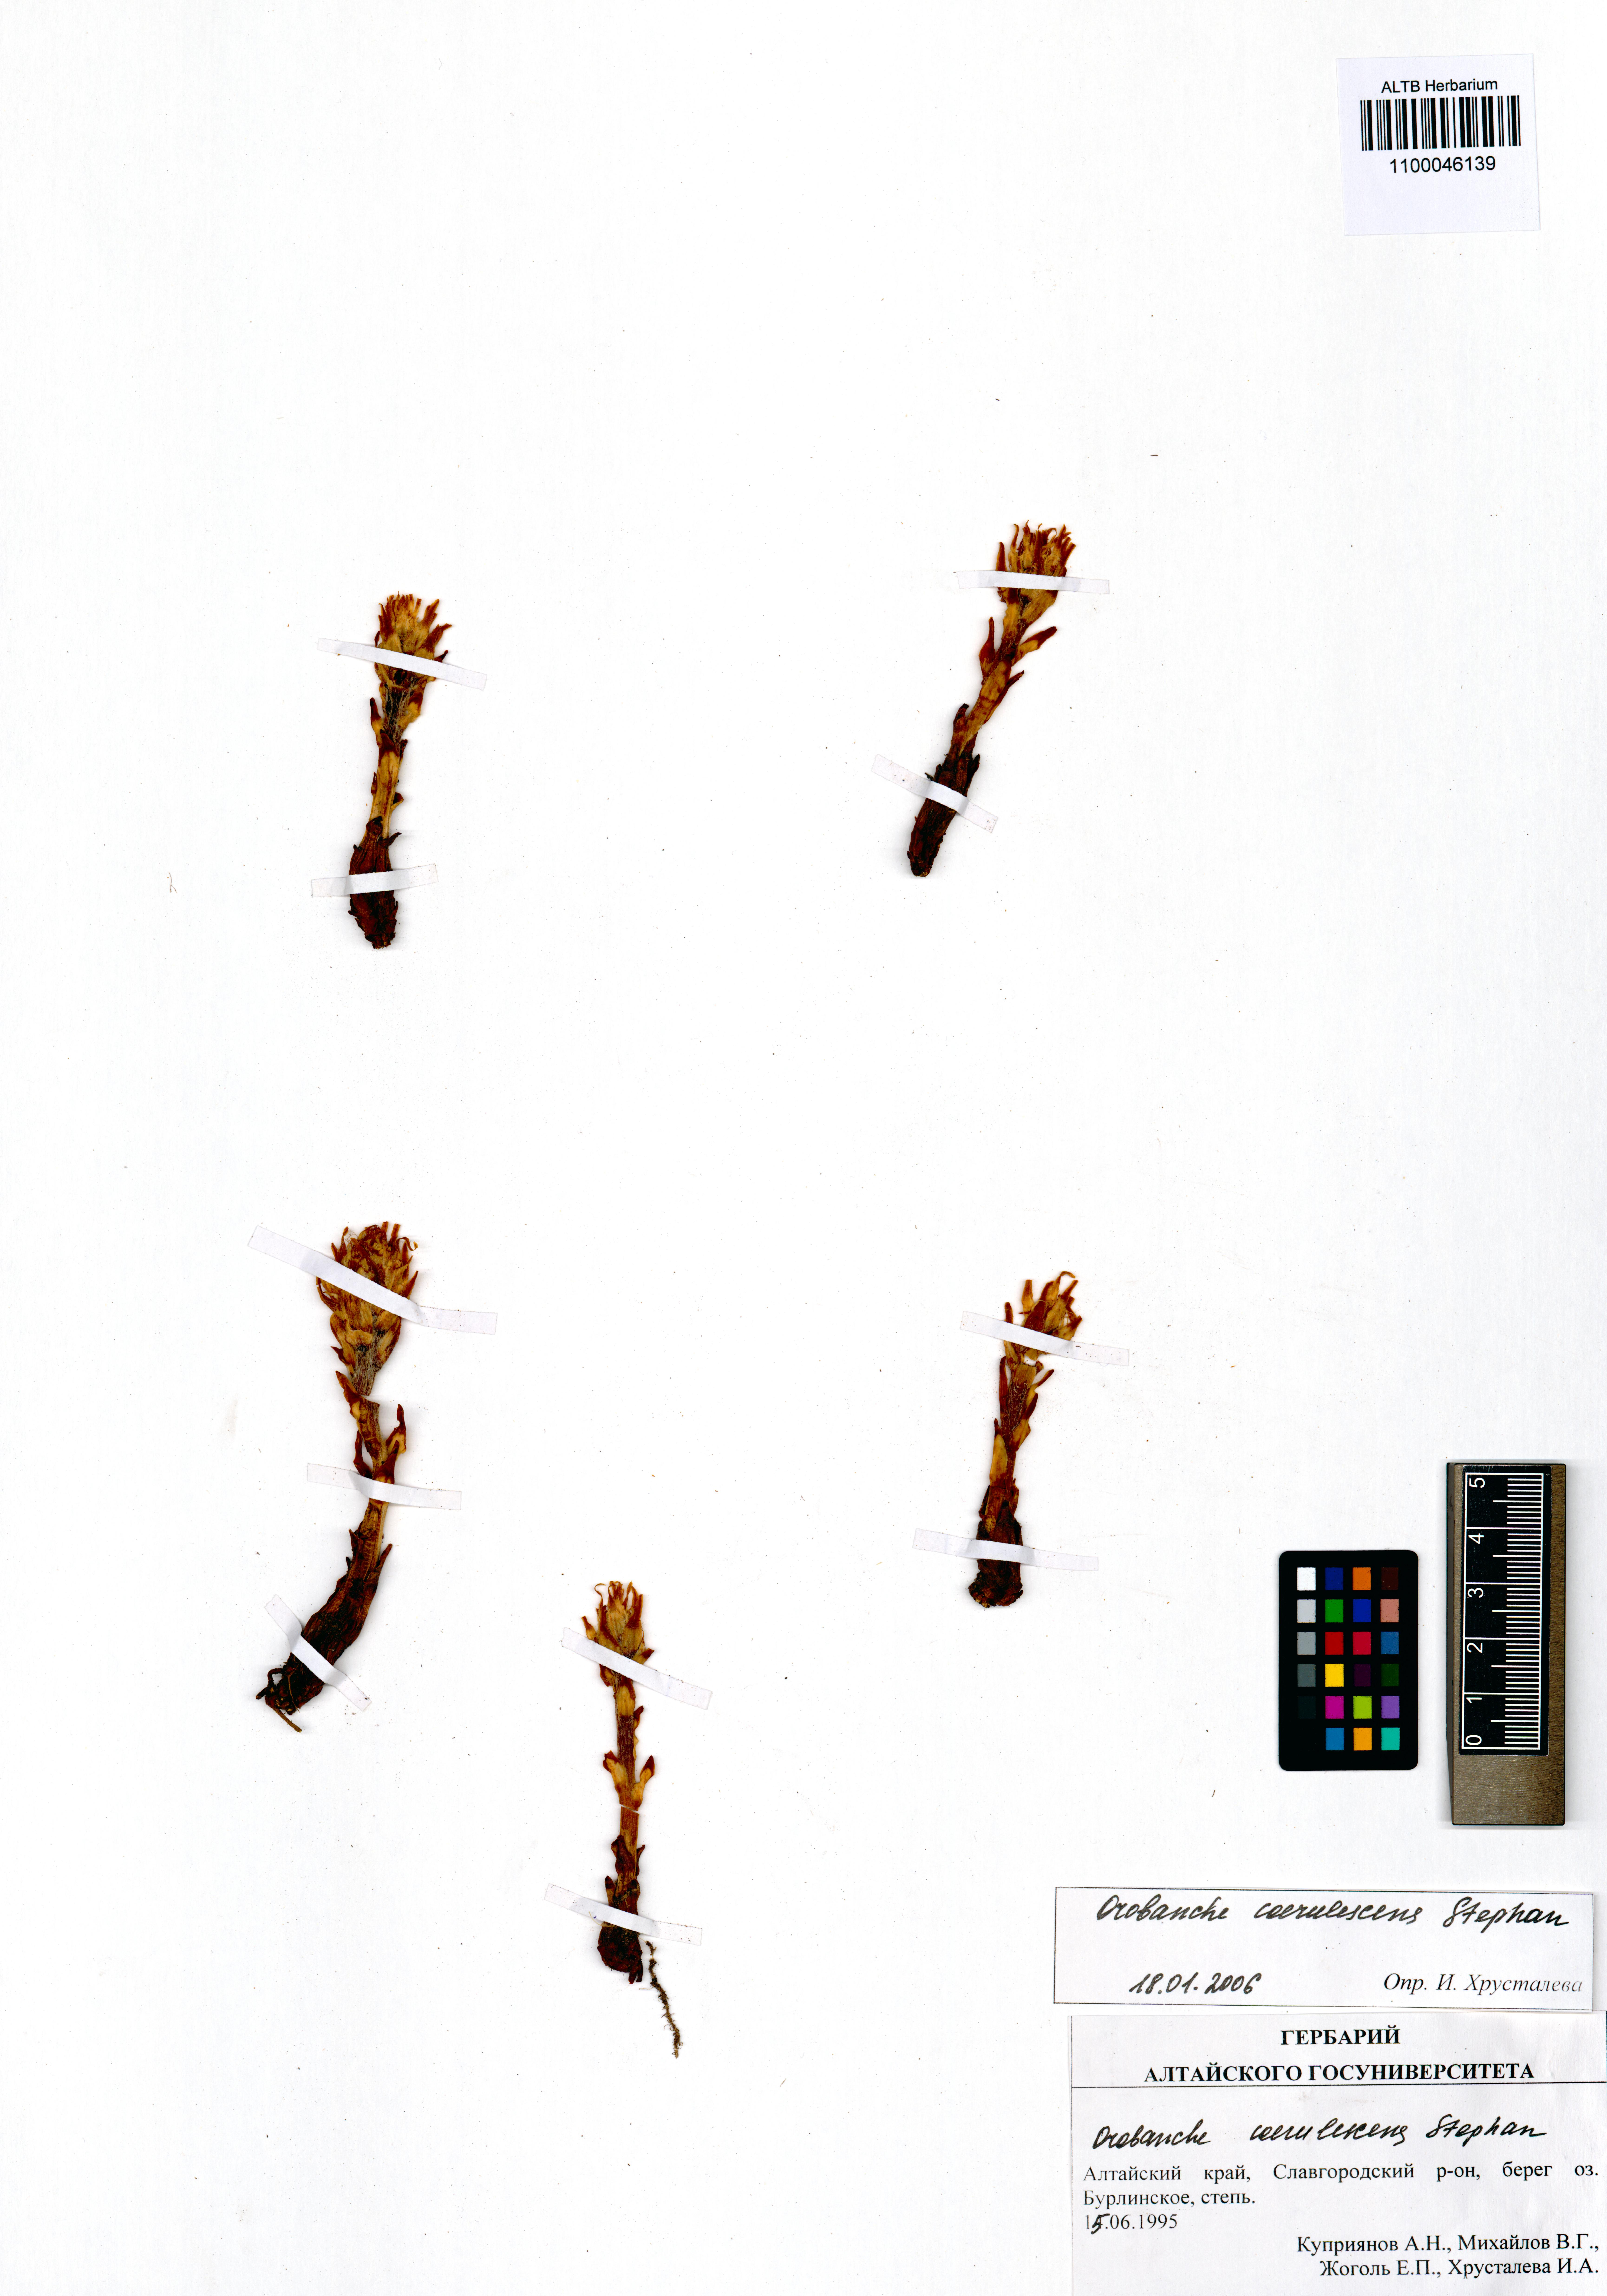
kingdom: Plantae
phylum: Tracheophyta
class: Magnoliopsida
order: Lamiales
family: Orobanchaceae
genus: Orobanche
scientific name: Orobanche coerulescens
